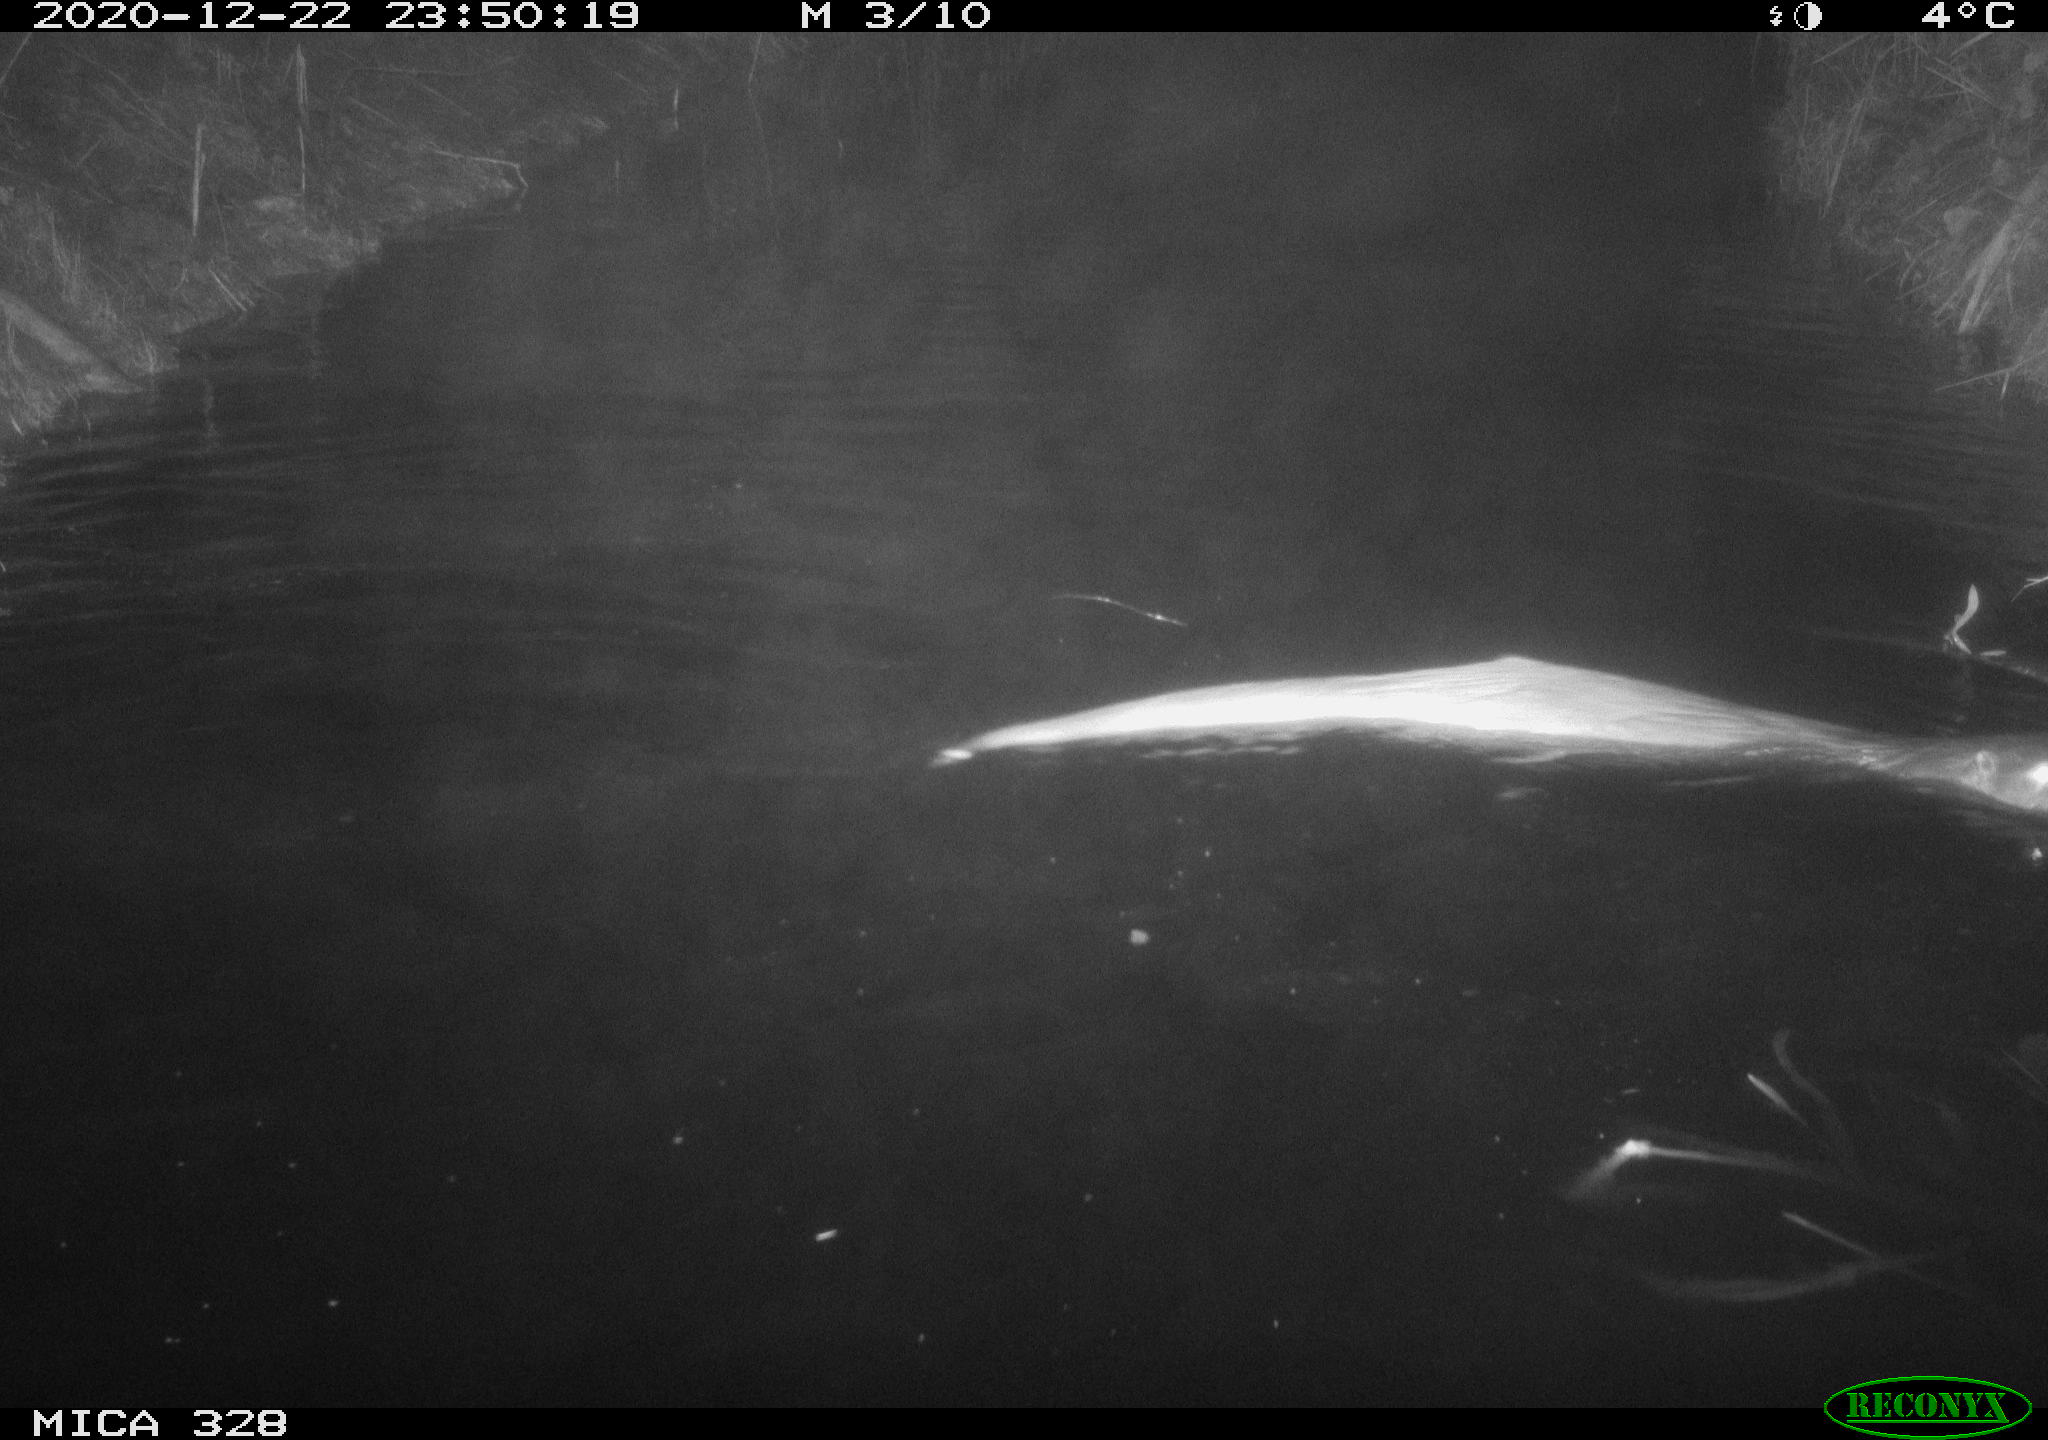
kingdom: Animalia
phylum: Chordata
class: Mammalia
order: Carnivora
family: Mustelidae
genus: Lutra
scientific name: Lutra lutra
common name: European otter
